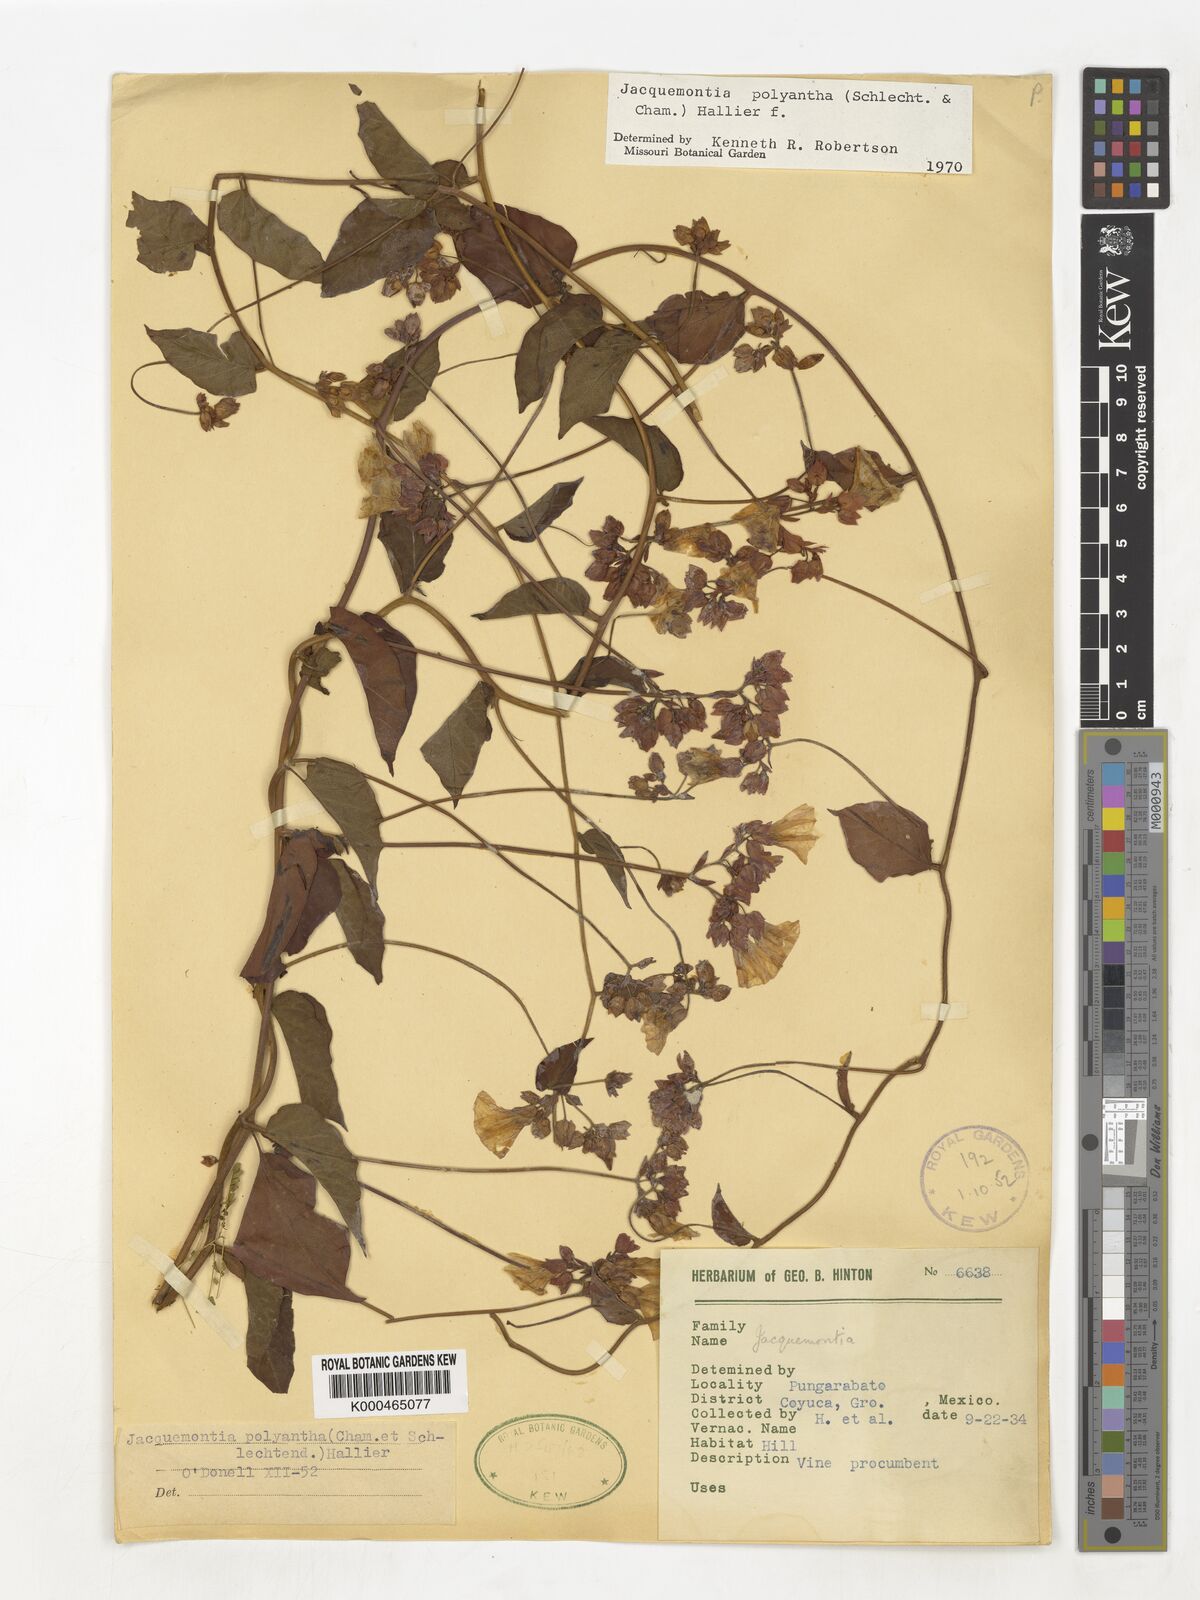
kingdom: Plantae
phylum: Tracheophyta
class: Magnoliopsida
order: Solanales
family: Convolvulaceae
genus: Jacquemontia
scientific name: Jacquemontia polyantha
